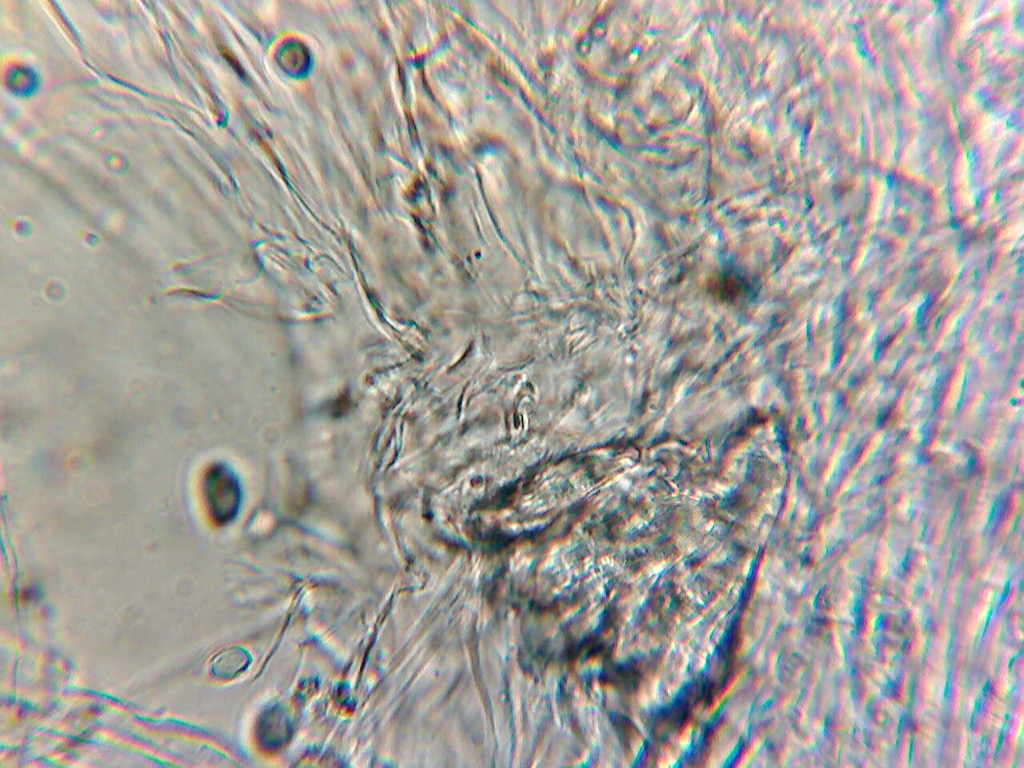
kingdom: Fungi
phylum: Basidiomycota
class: Agaricomycetes
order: Agaricales
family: Mycenaceae
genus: Hemimycena
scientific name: Hemimycena
